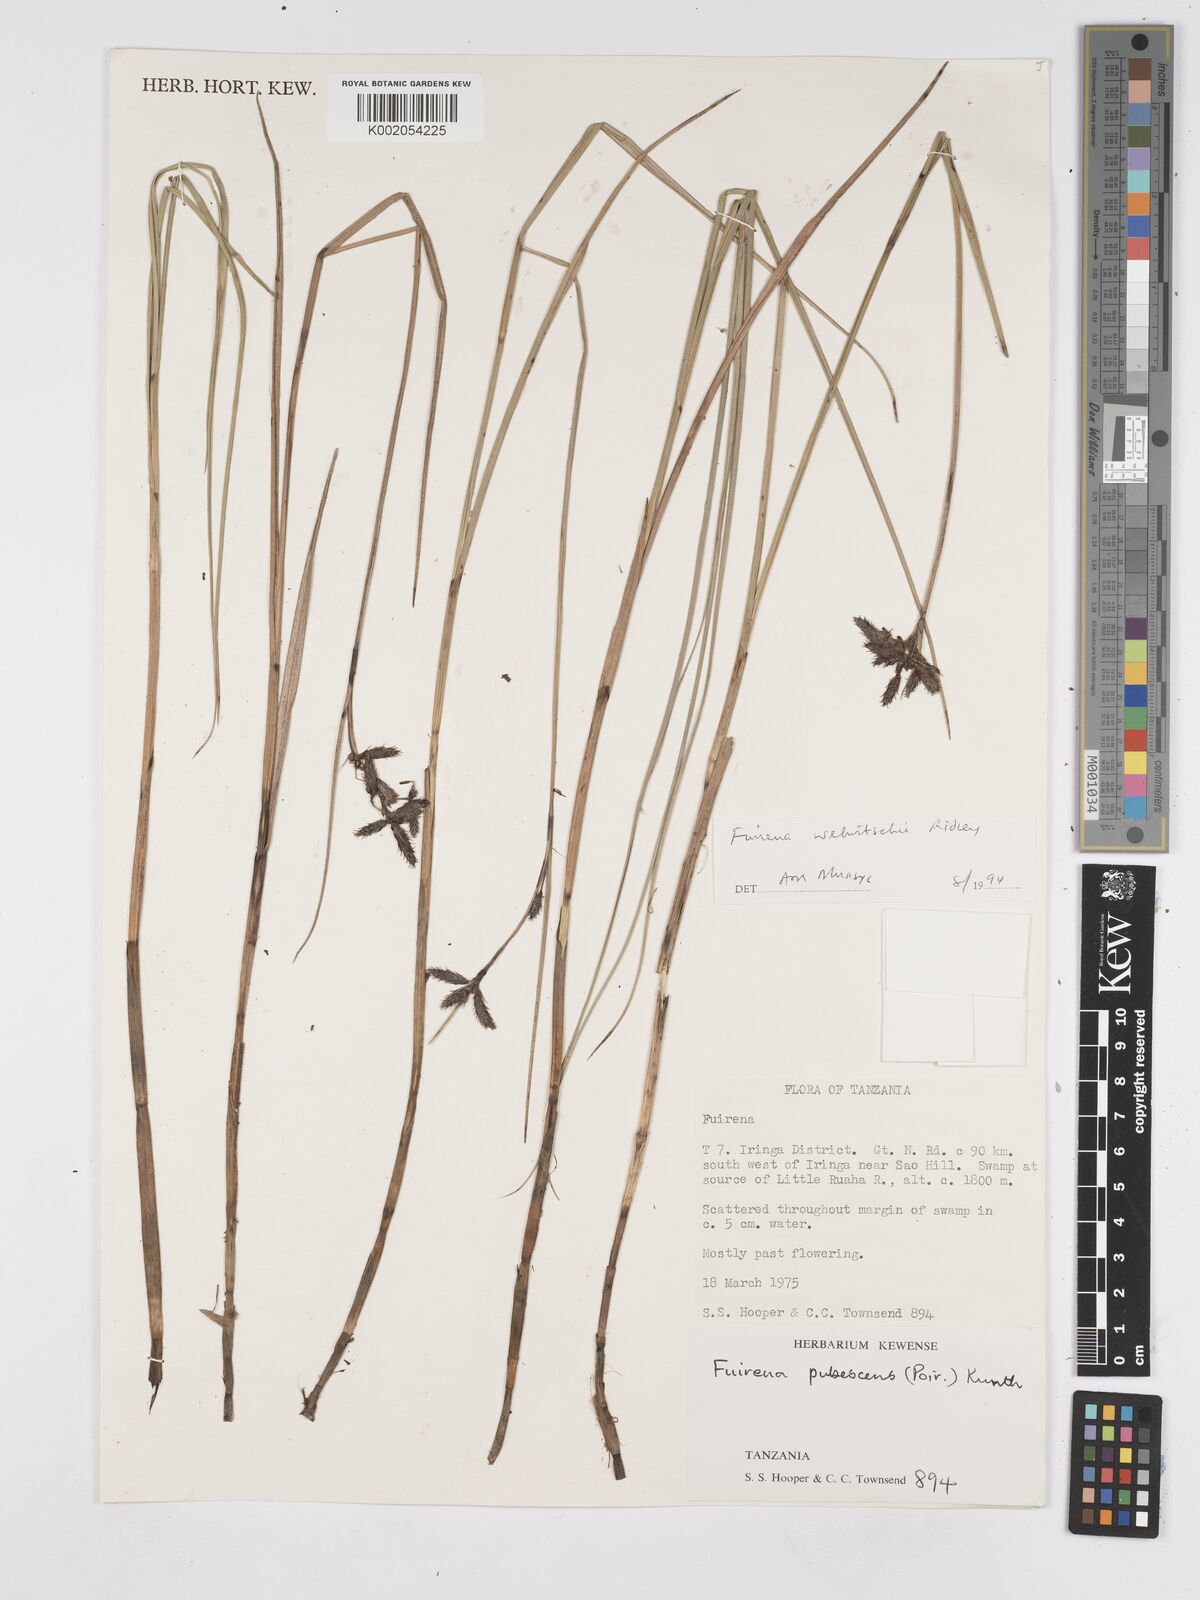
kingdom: Plantae
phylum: Tracheophyta
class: Liliopsida
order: Poales
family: Cyperaceae
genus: Fuirena
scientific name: Fuirena welwitschii
